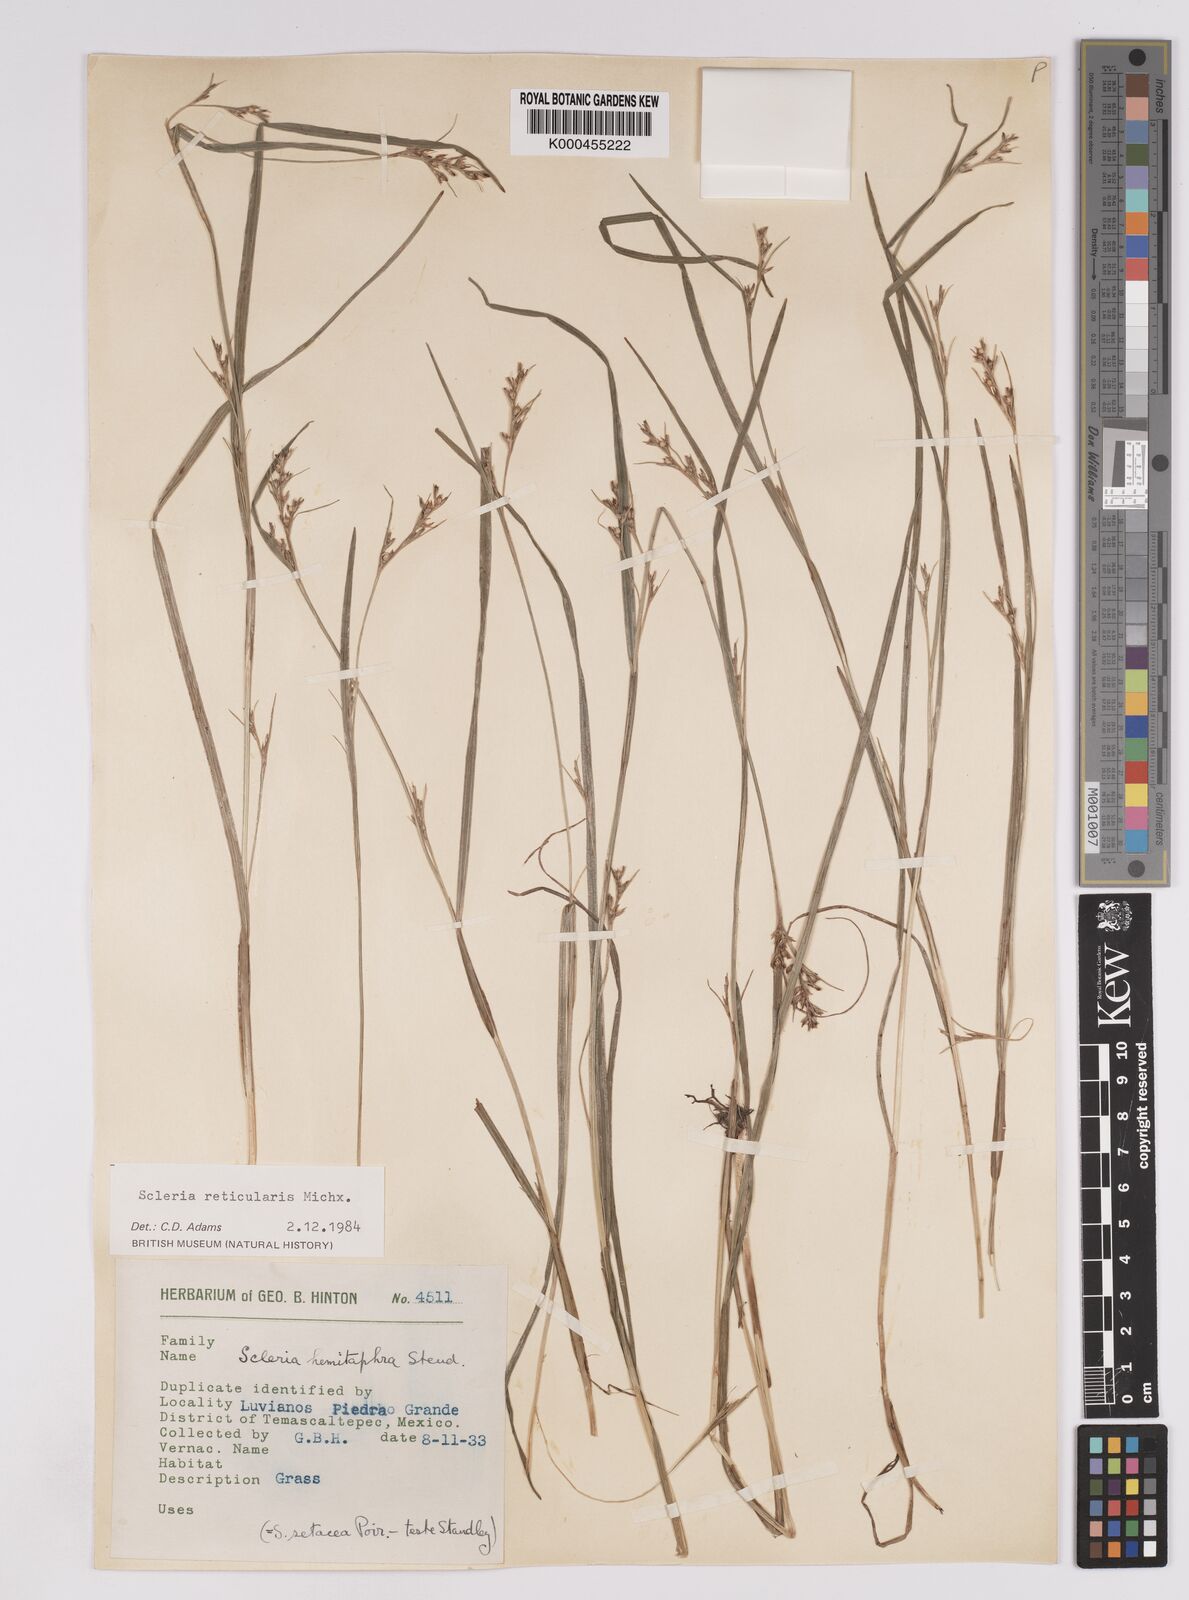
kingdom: Plantae
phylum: Tracheophyta
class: Liliopsida
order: Poales
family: Cyperaceae
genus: Scleria
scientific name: Scleria
